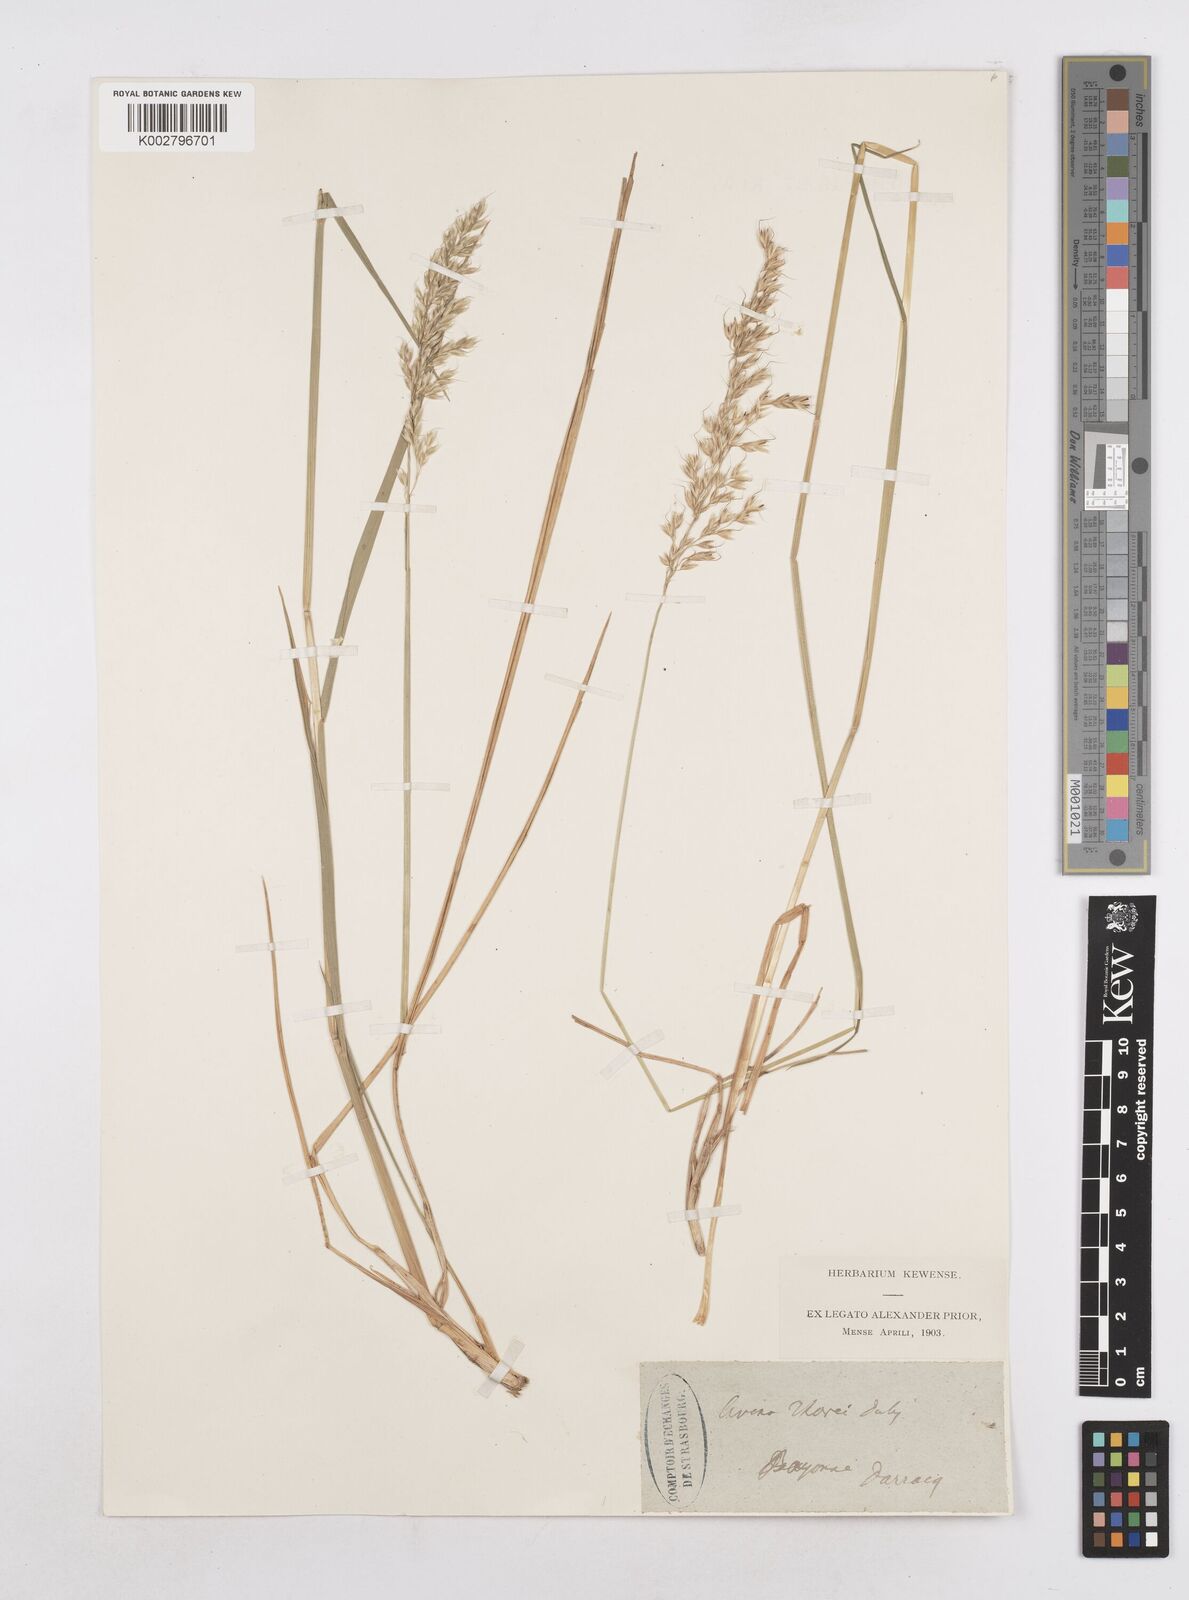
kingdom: Plantae
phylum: Tracheophyta
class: Liliopsida
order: Poales
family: Poaceae
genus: Arrhenatherum
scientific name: Arrhenatherum longifolium
